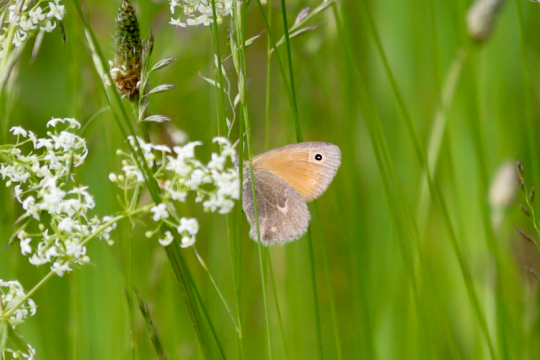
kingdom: Animalia
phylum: Arthropoda
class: Insecta
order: Lepidoptera
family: Nymphalidae
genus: Coenonympha
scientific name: Coenonympha
